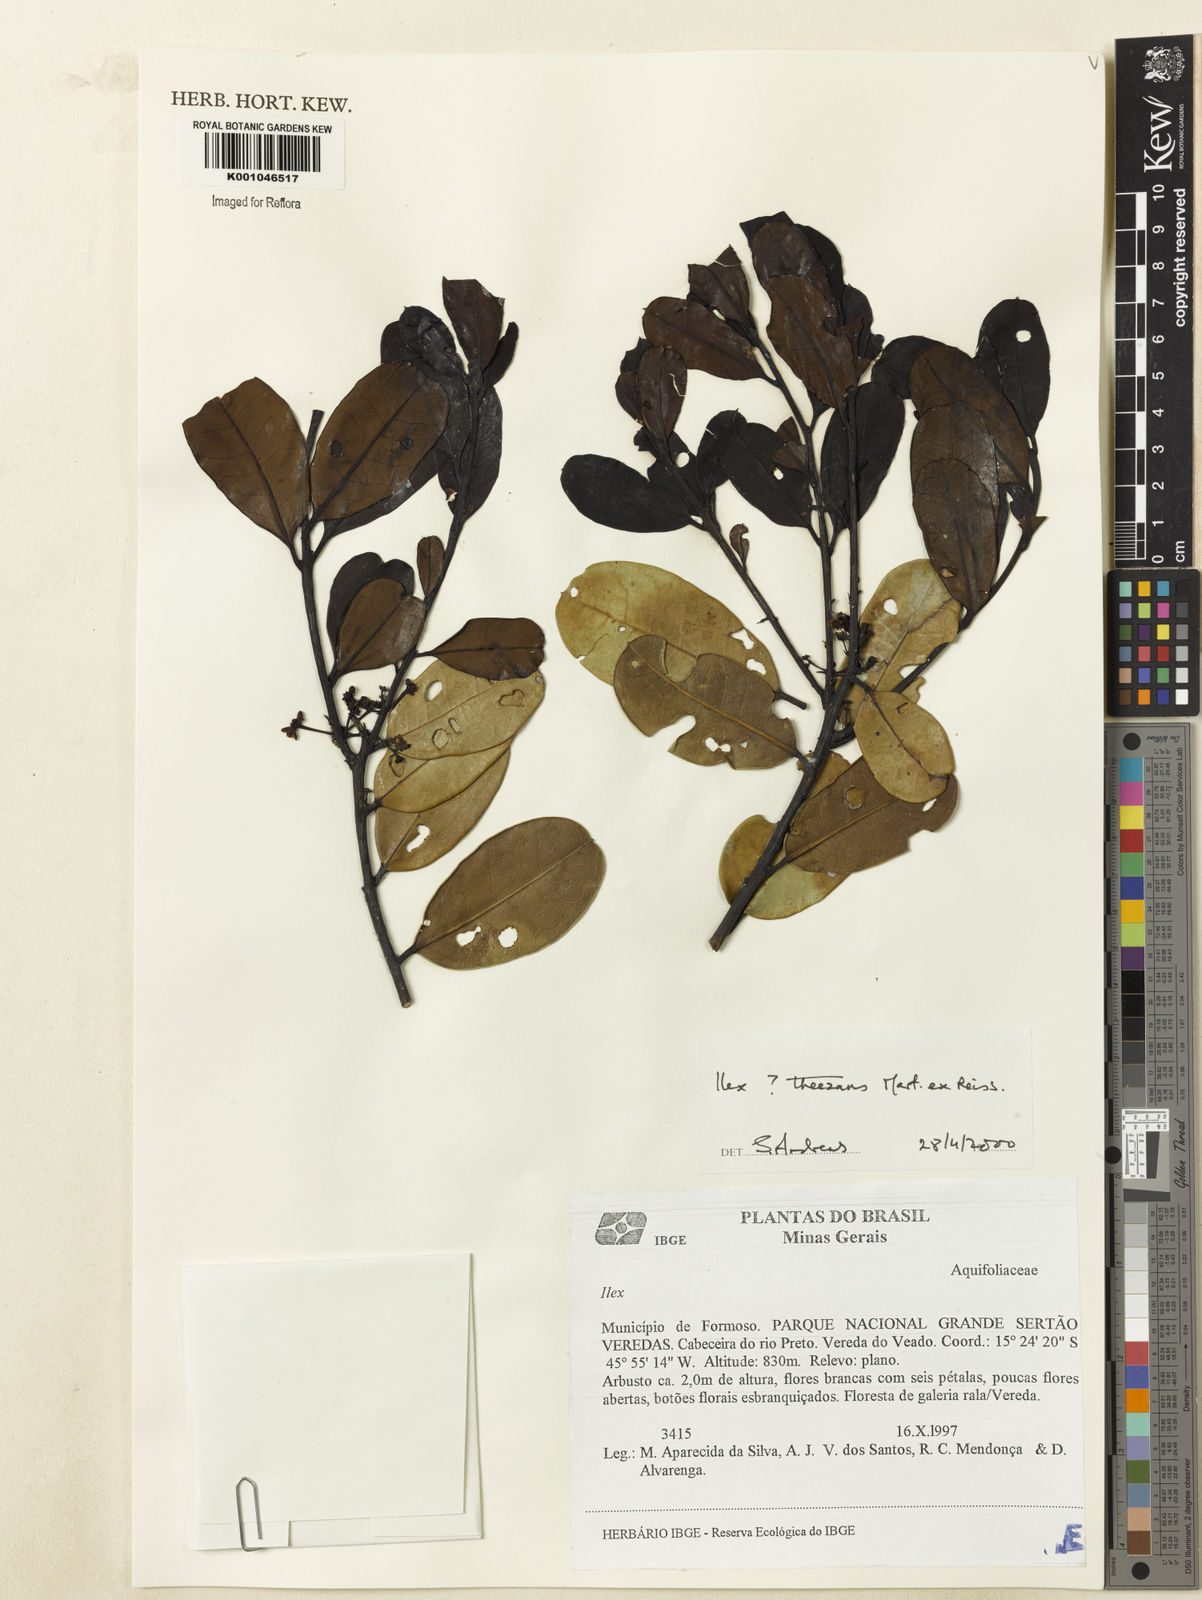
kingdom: Plantae
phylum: Tracheophyta
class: Magnoliopsida
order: Aquifoliales
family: Aquifoliaceae
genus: Ilex
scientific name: Ilex paraguariensis
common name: Paraguay tea
